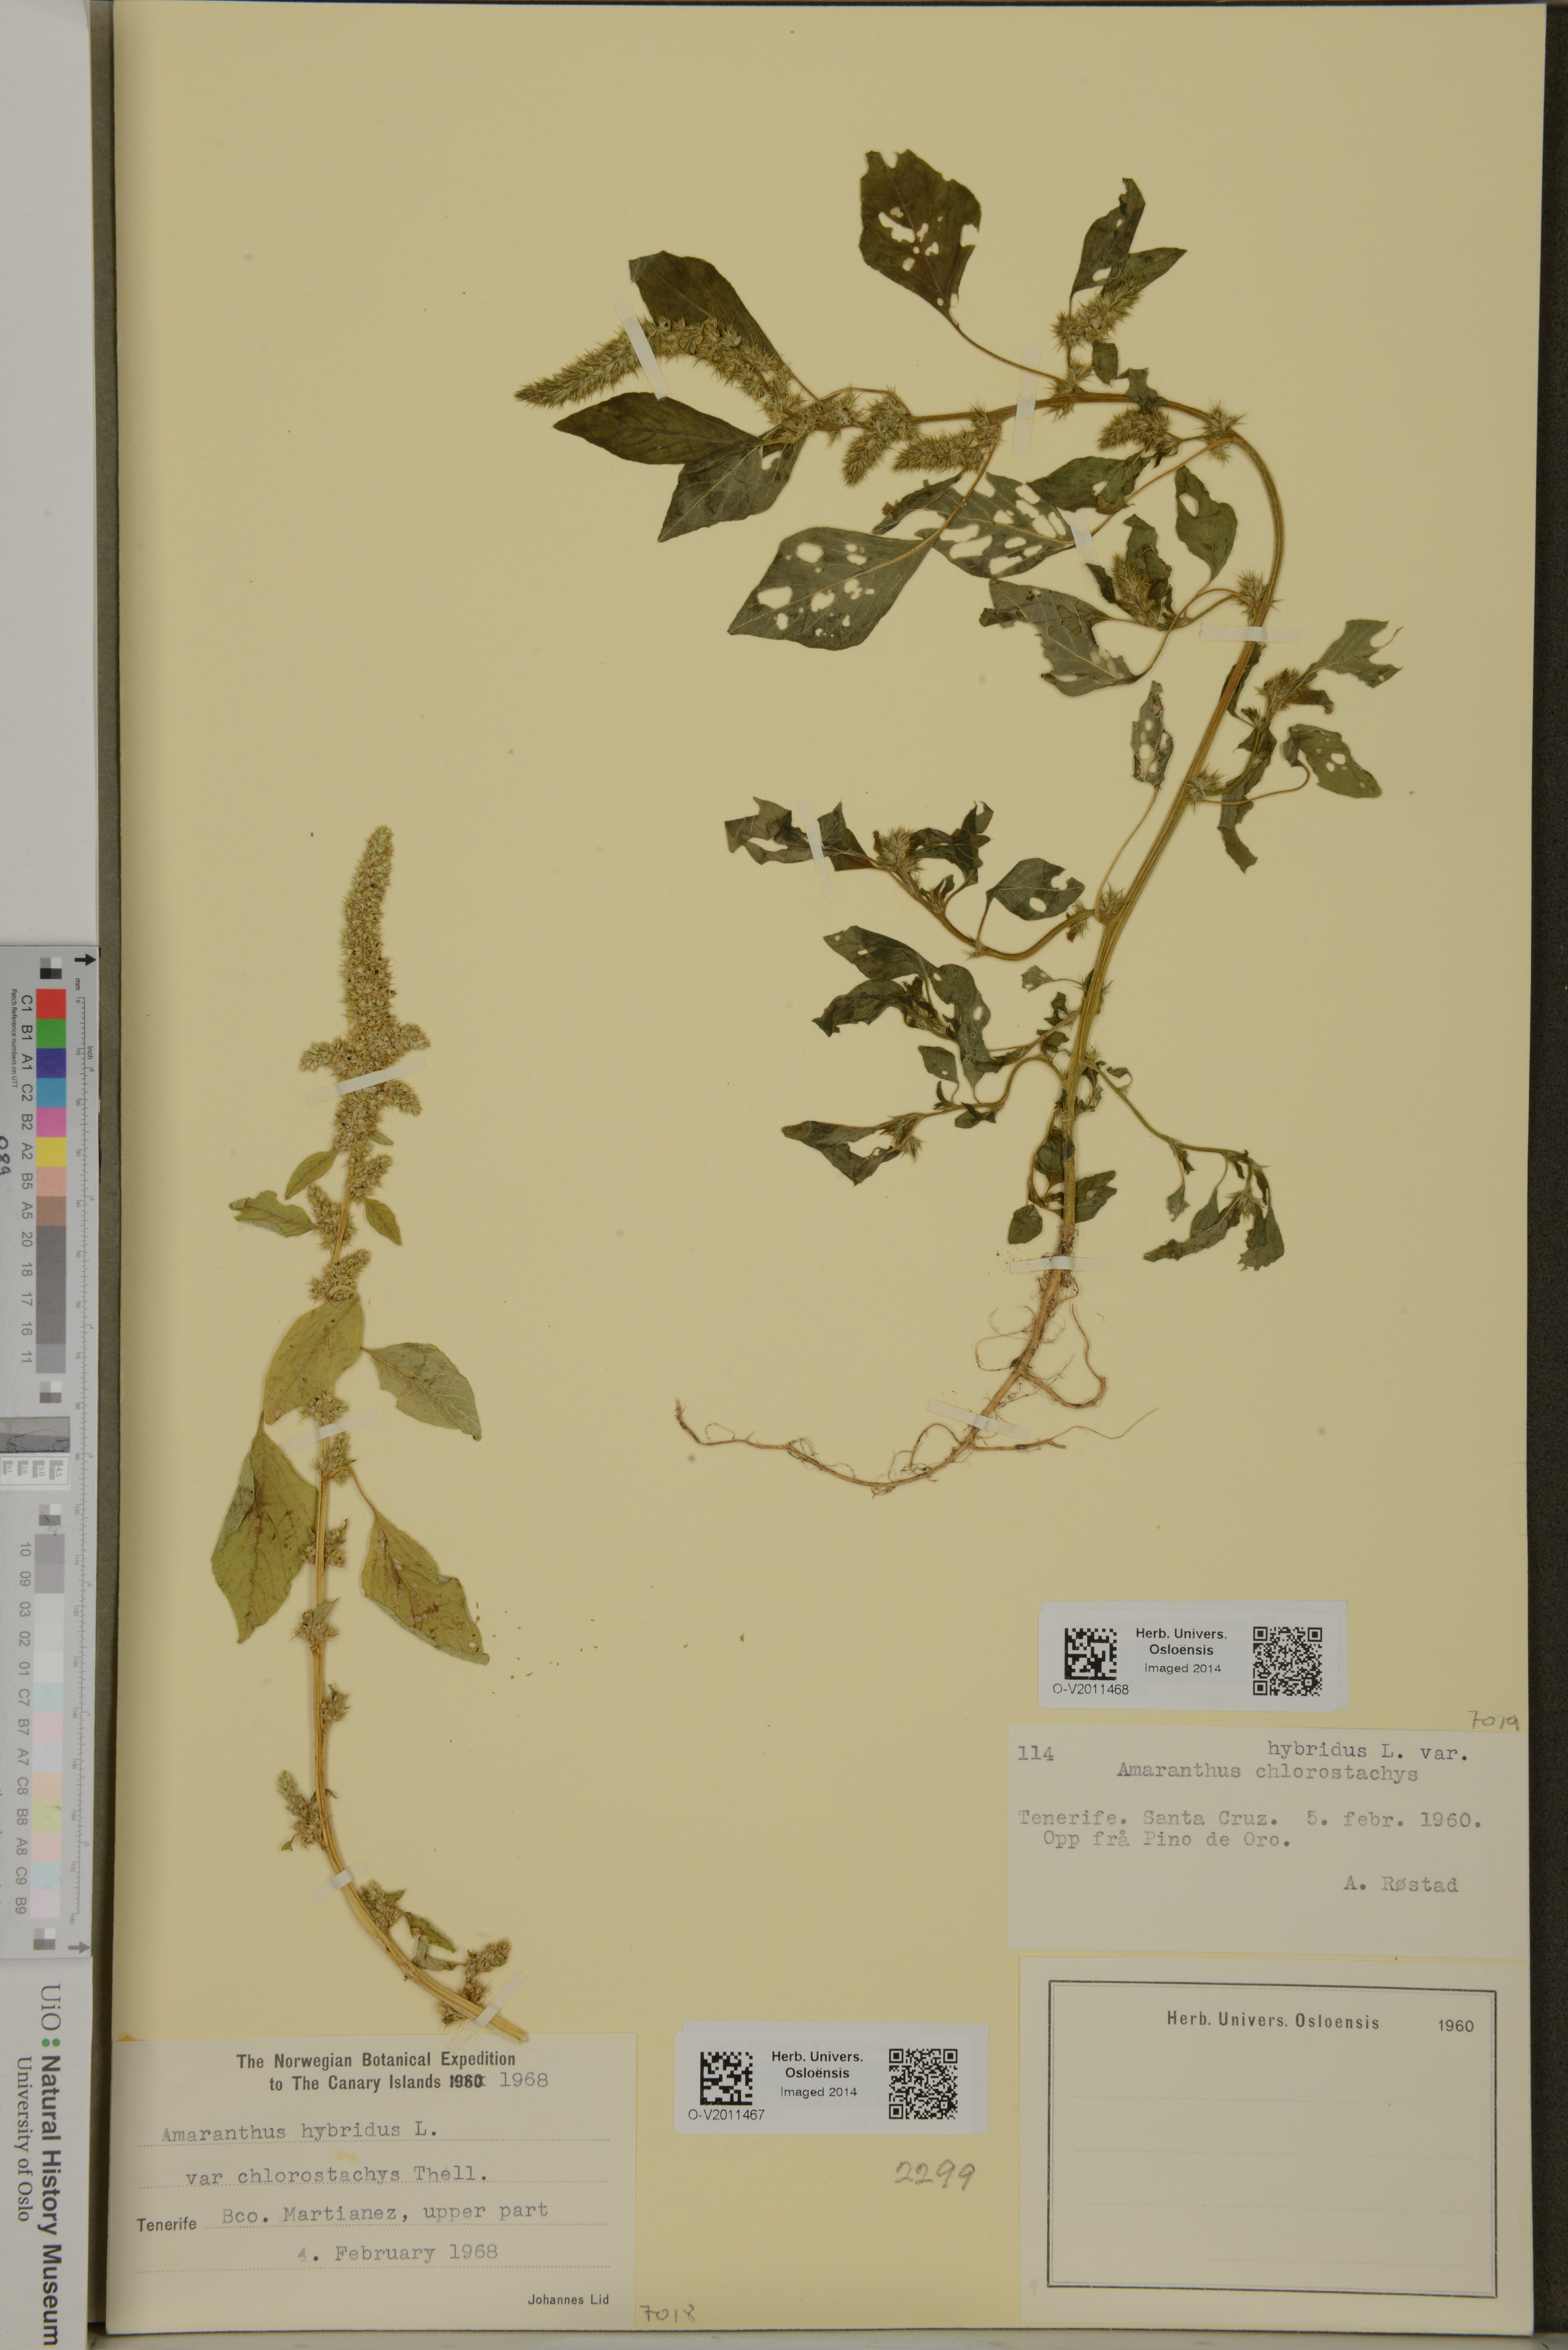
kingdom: Plantae
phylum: Tracheophyta
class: Magnoliopsida
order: Caryophyllales
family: Amaranthaceae
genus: Amaranthus
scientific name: Amaranthus cruentus
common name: Purple amaranth
